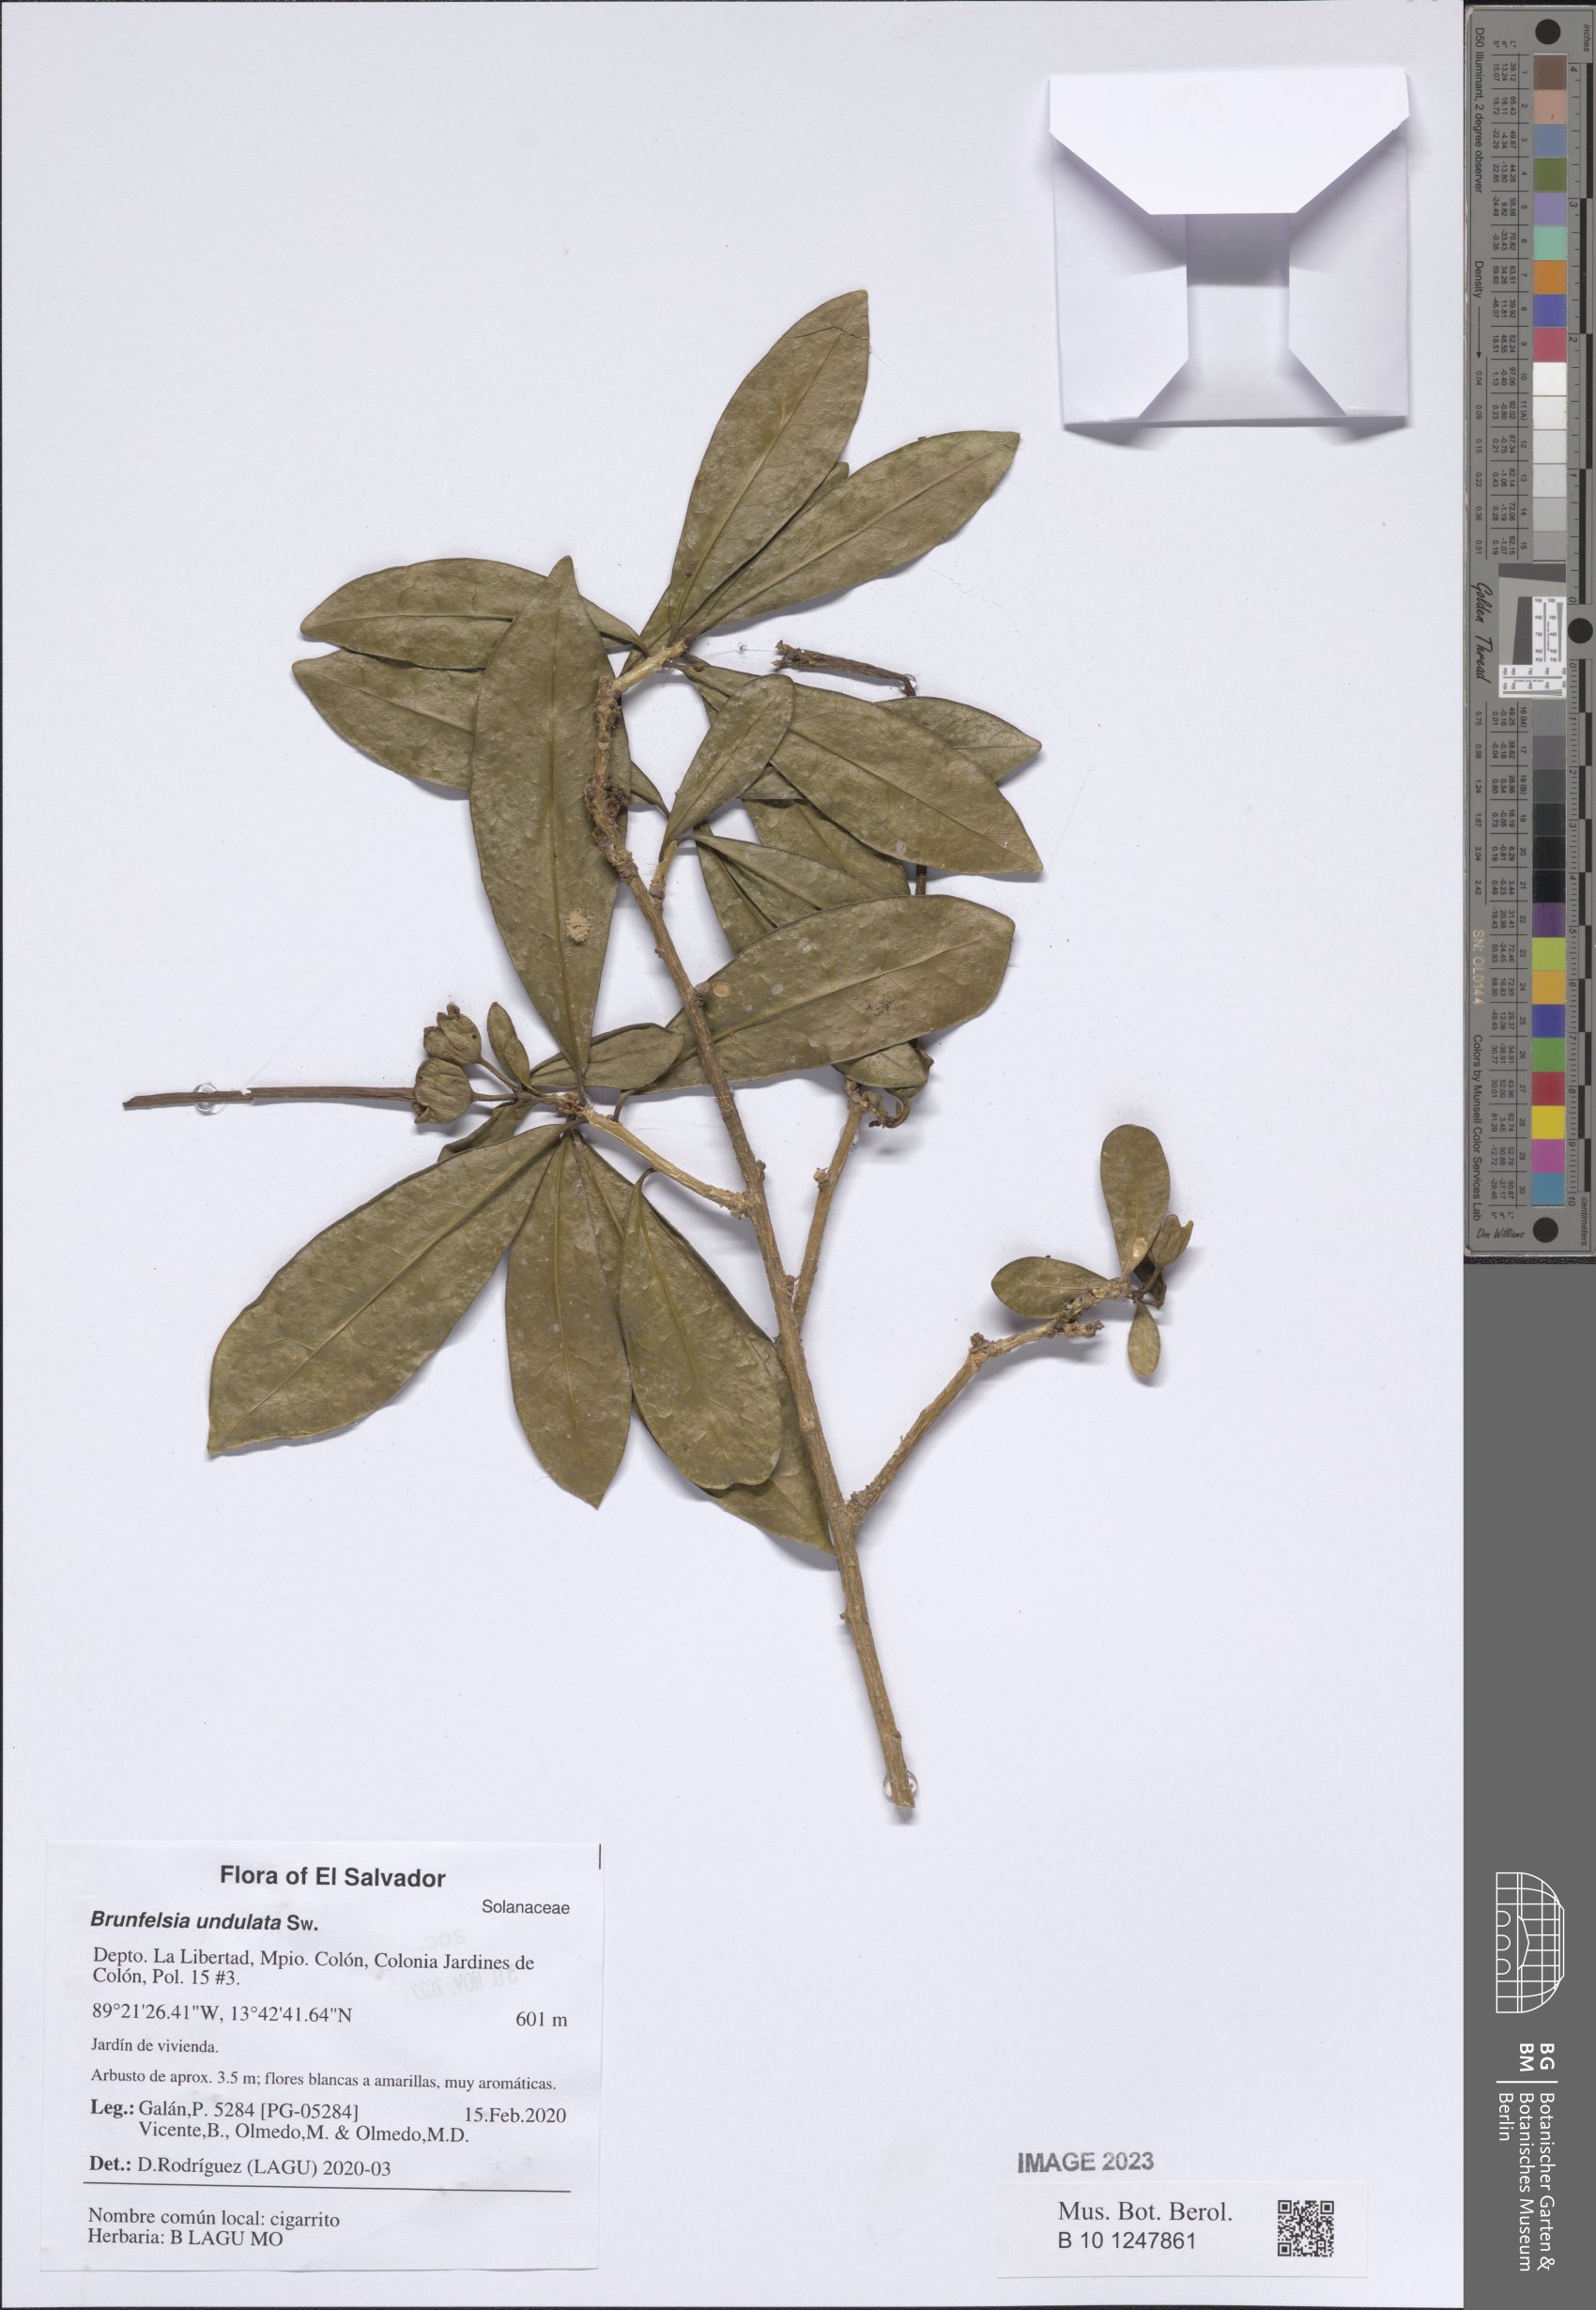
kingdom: Plantae
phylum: Tracheophyta
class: Magnoliopsida
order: Solanales
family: Solanaceae
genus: Brunfelsia
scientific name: Brunfelsia undulata
